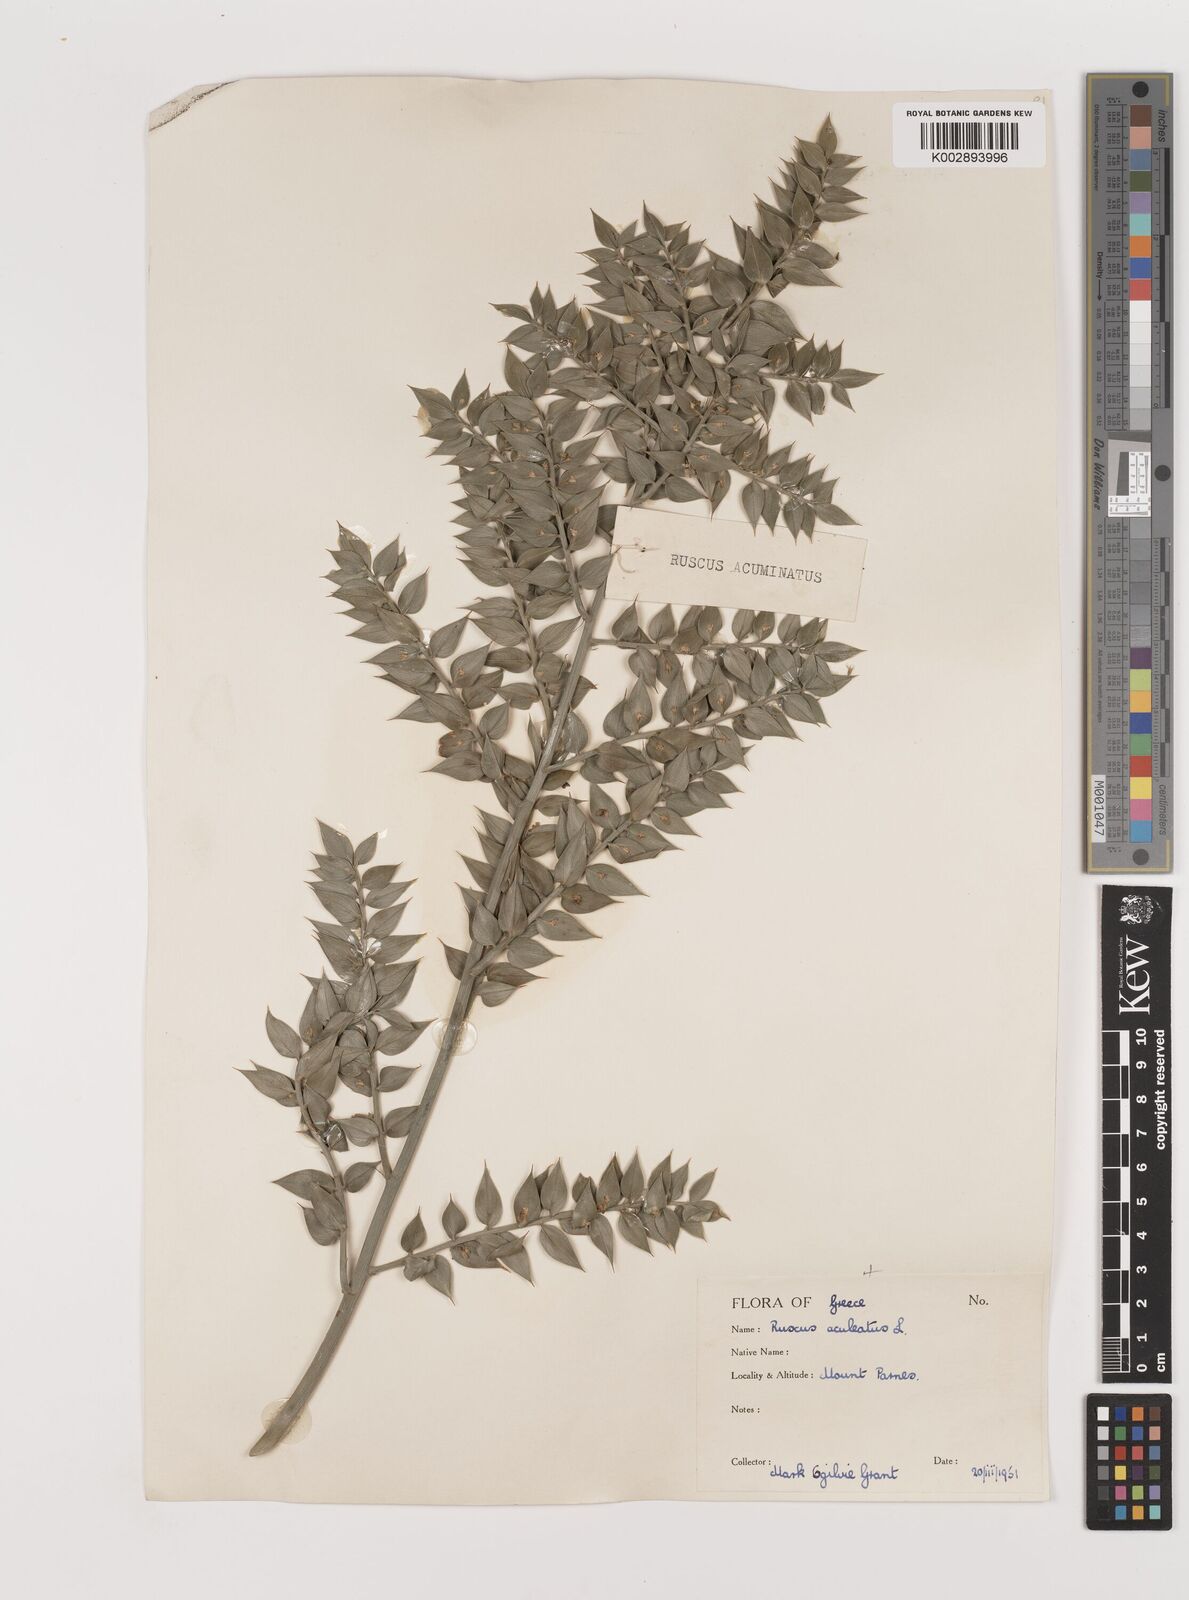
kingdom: Plantae
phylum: Tracheophyta
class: Liliopsida
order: Asparagales
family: Asparagaceae
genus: Ruscus
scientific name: Ruscus aculeatus
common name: Butcher's-broom
